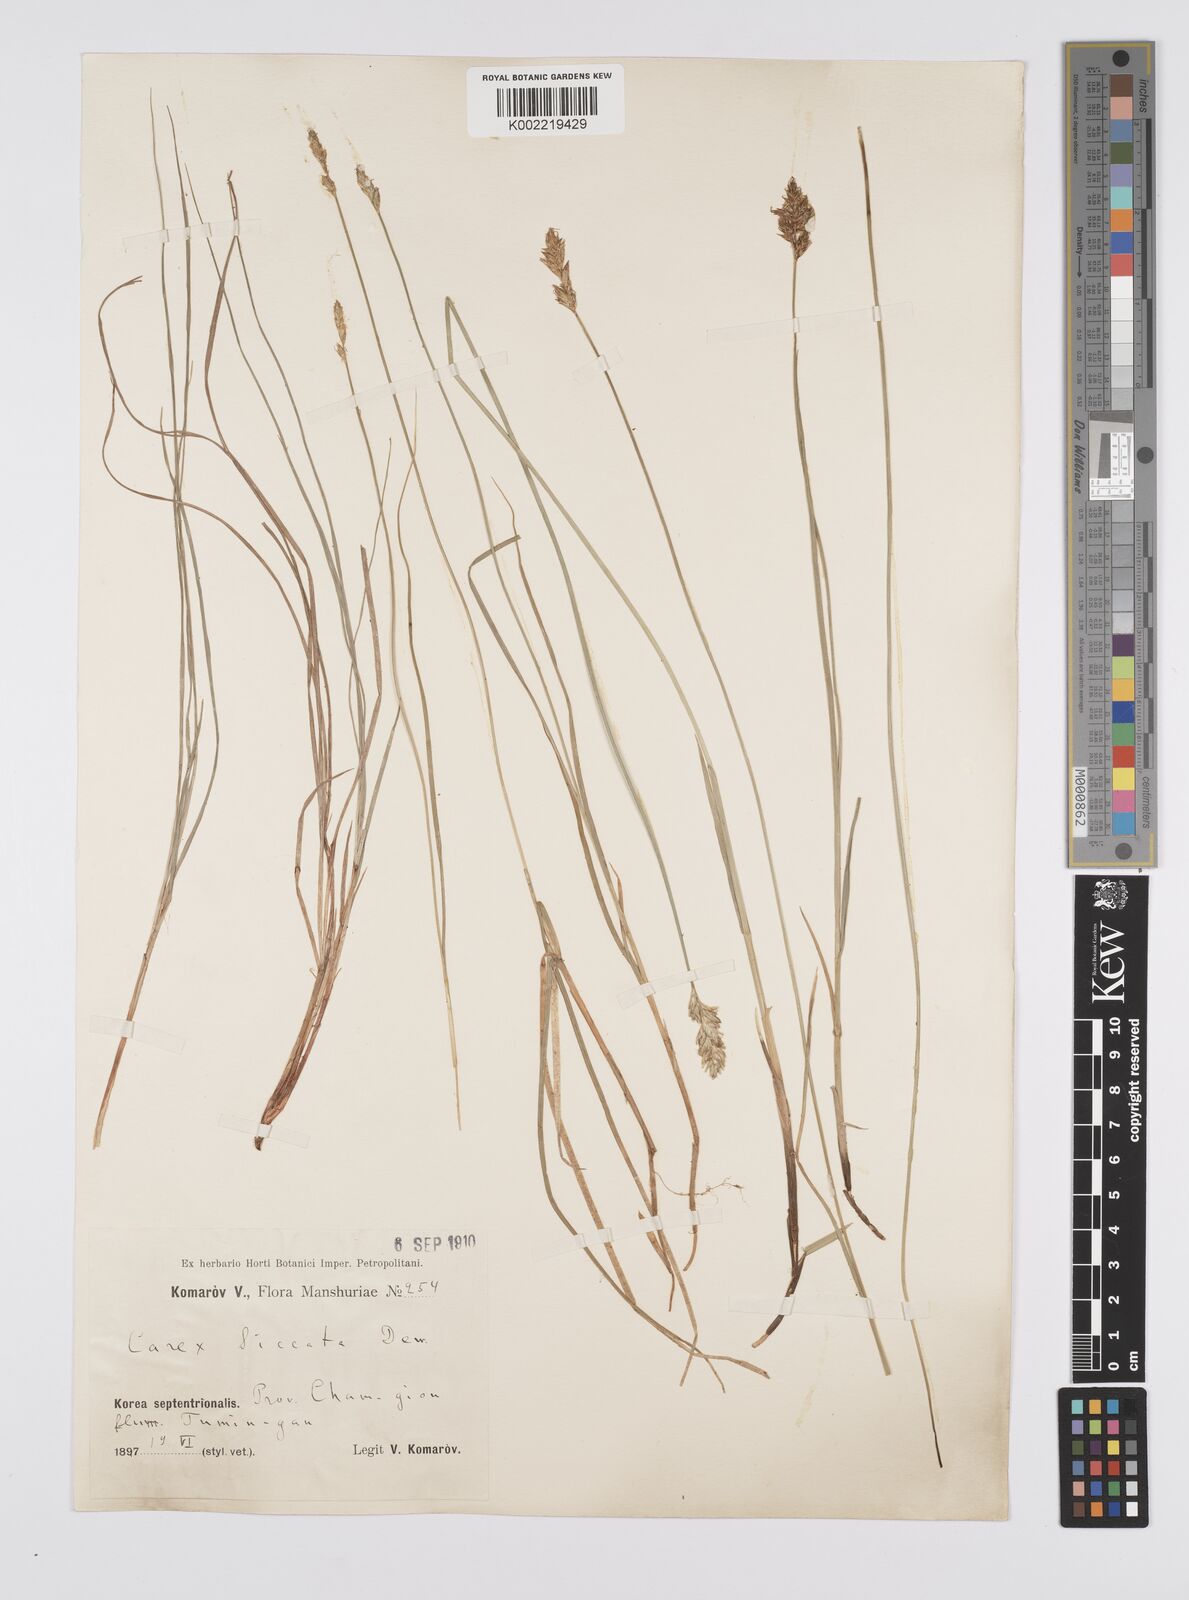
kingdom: Plantae
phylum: Tracheophyta
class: Liliopsida
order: Poales
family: Cyperaceae
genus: Carex
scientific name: Carex siccata
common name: Dry sedge
